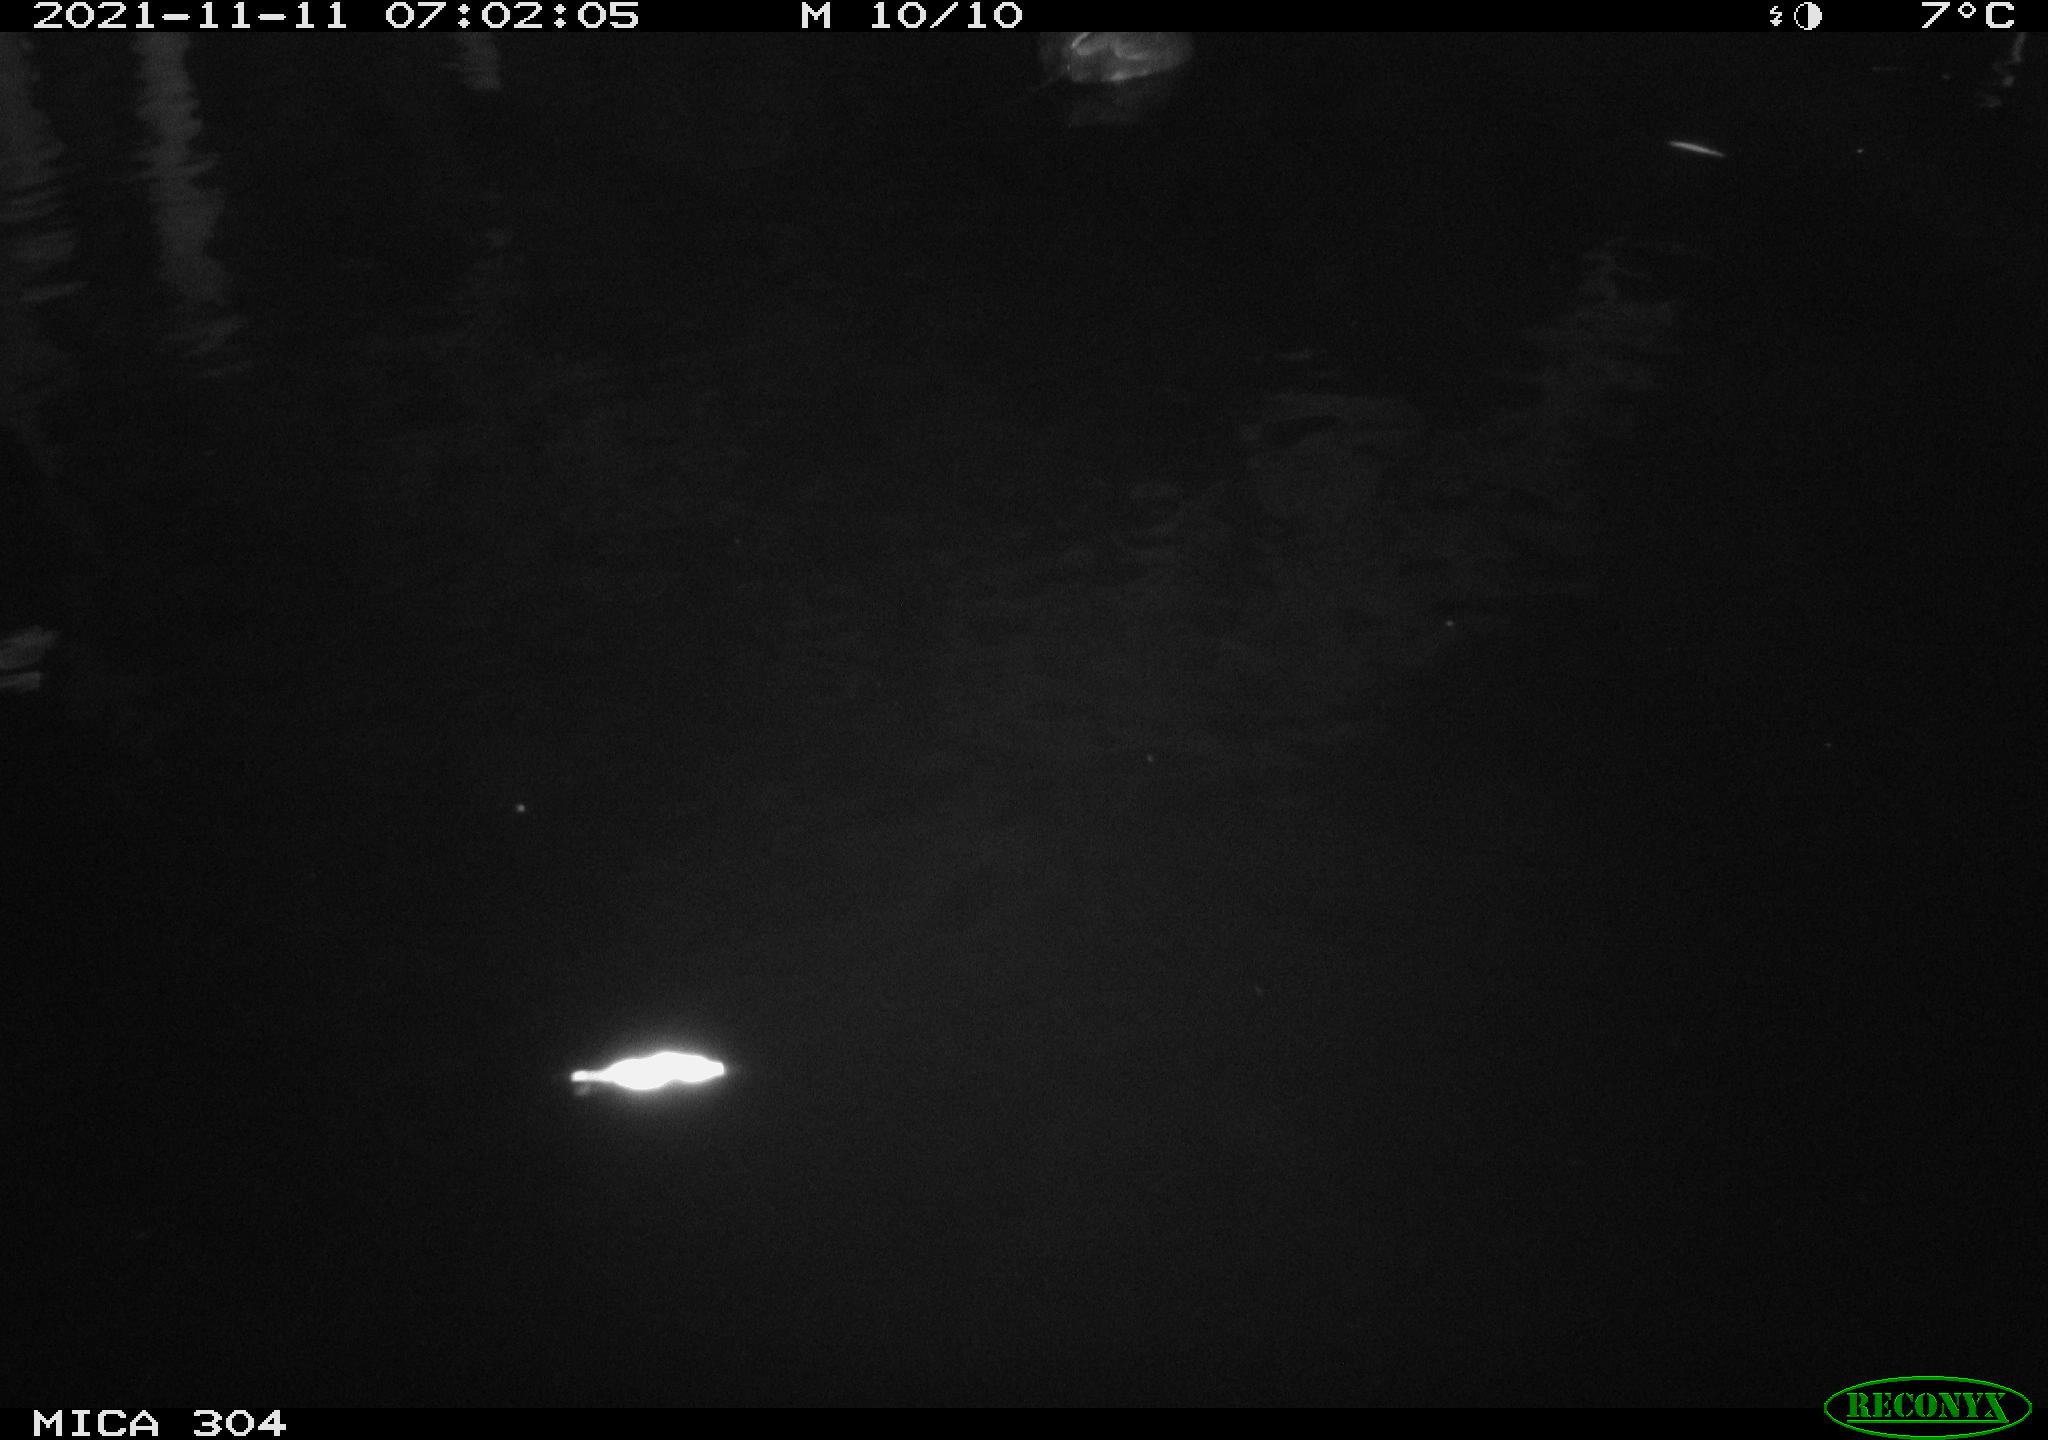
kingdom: Animalia
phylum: Chordata
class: Aves
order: Gruiformes
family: Rallidae
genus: Fulica
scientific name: Fulica atra
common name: Eurasian coot
